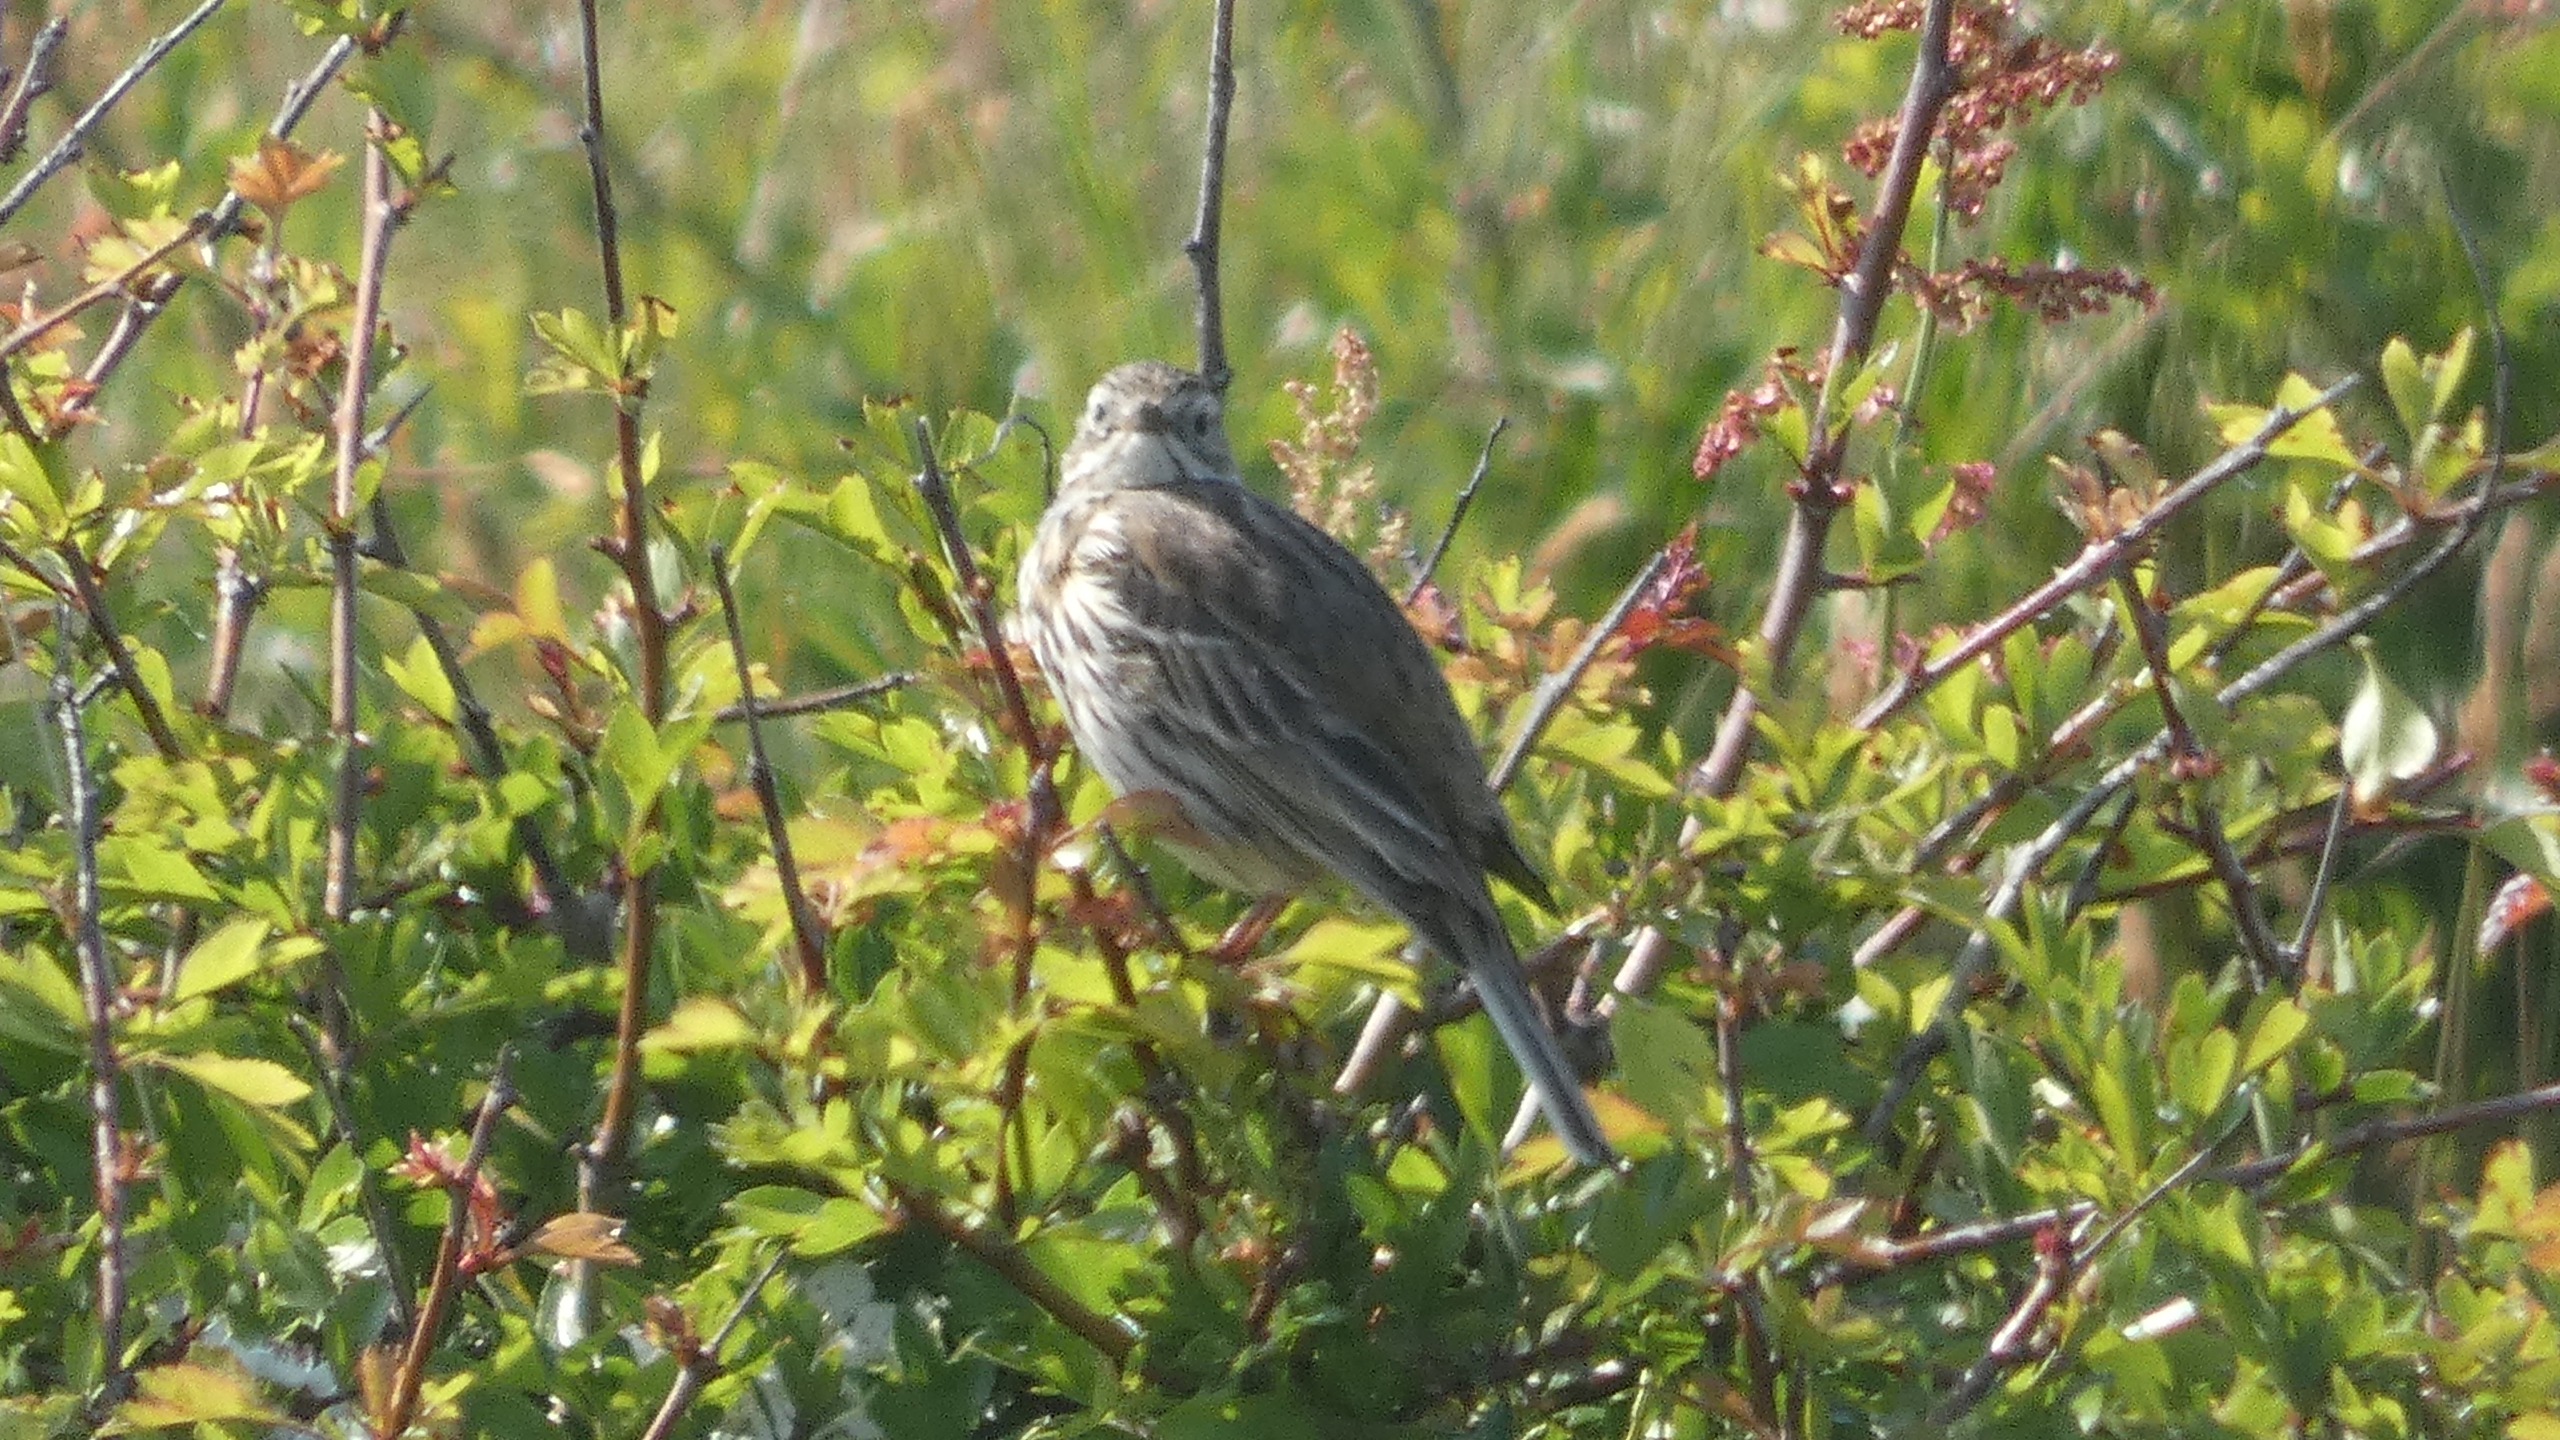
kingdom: Animalia
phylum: Chordata
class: Aves
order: Passeriformes
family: Motacillidae
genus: Anthus
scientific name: Anthus pratensis
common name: Engpiber
